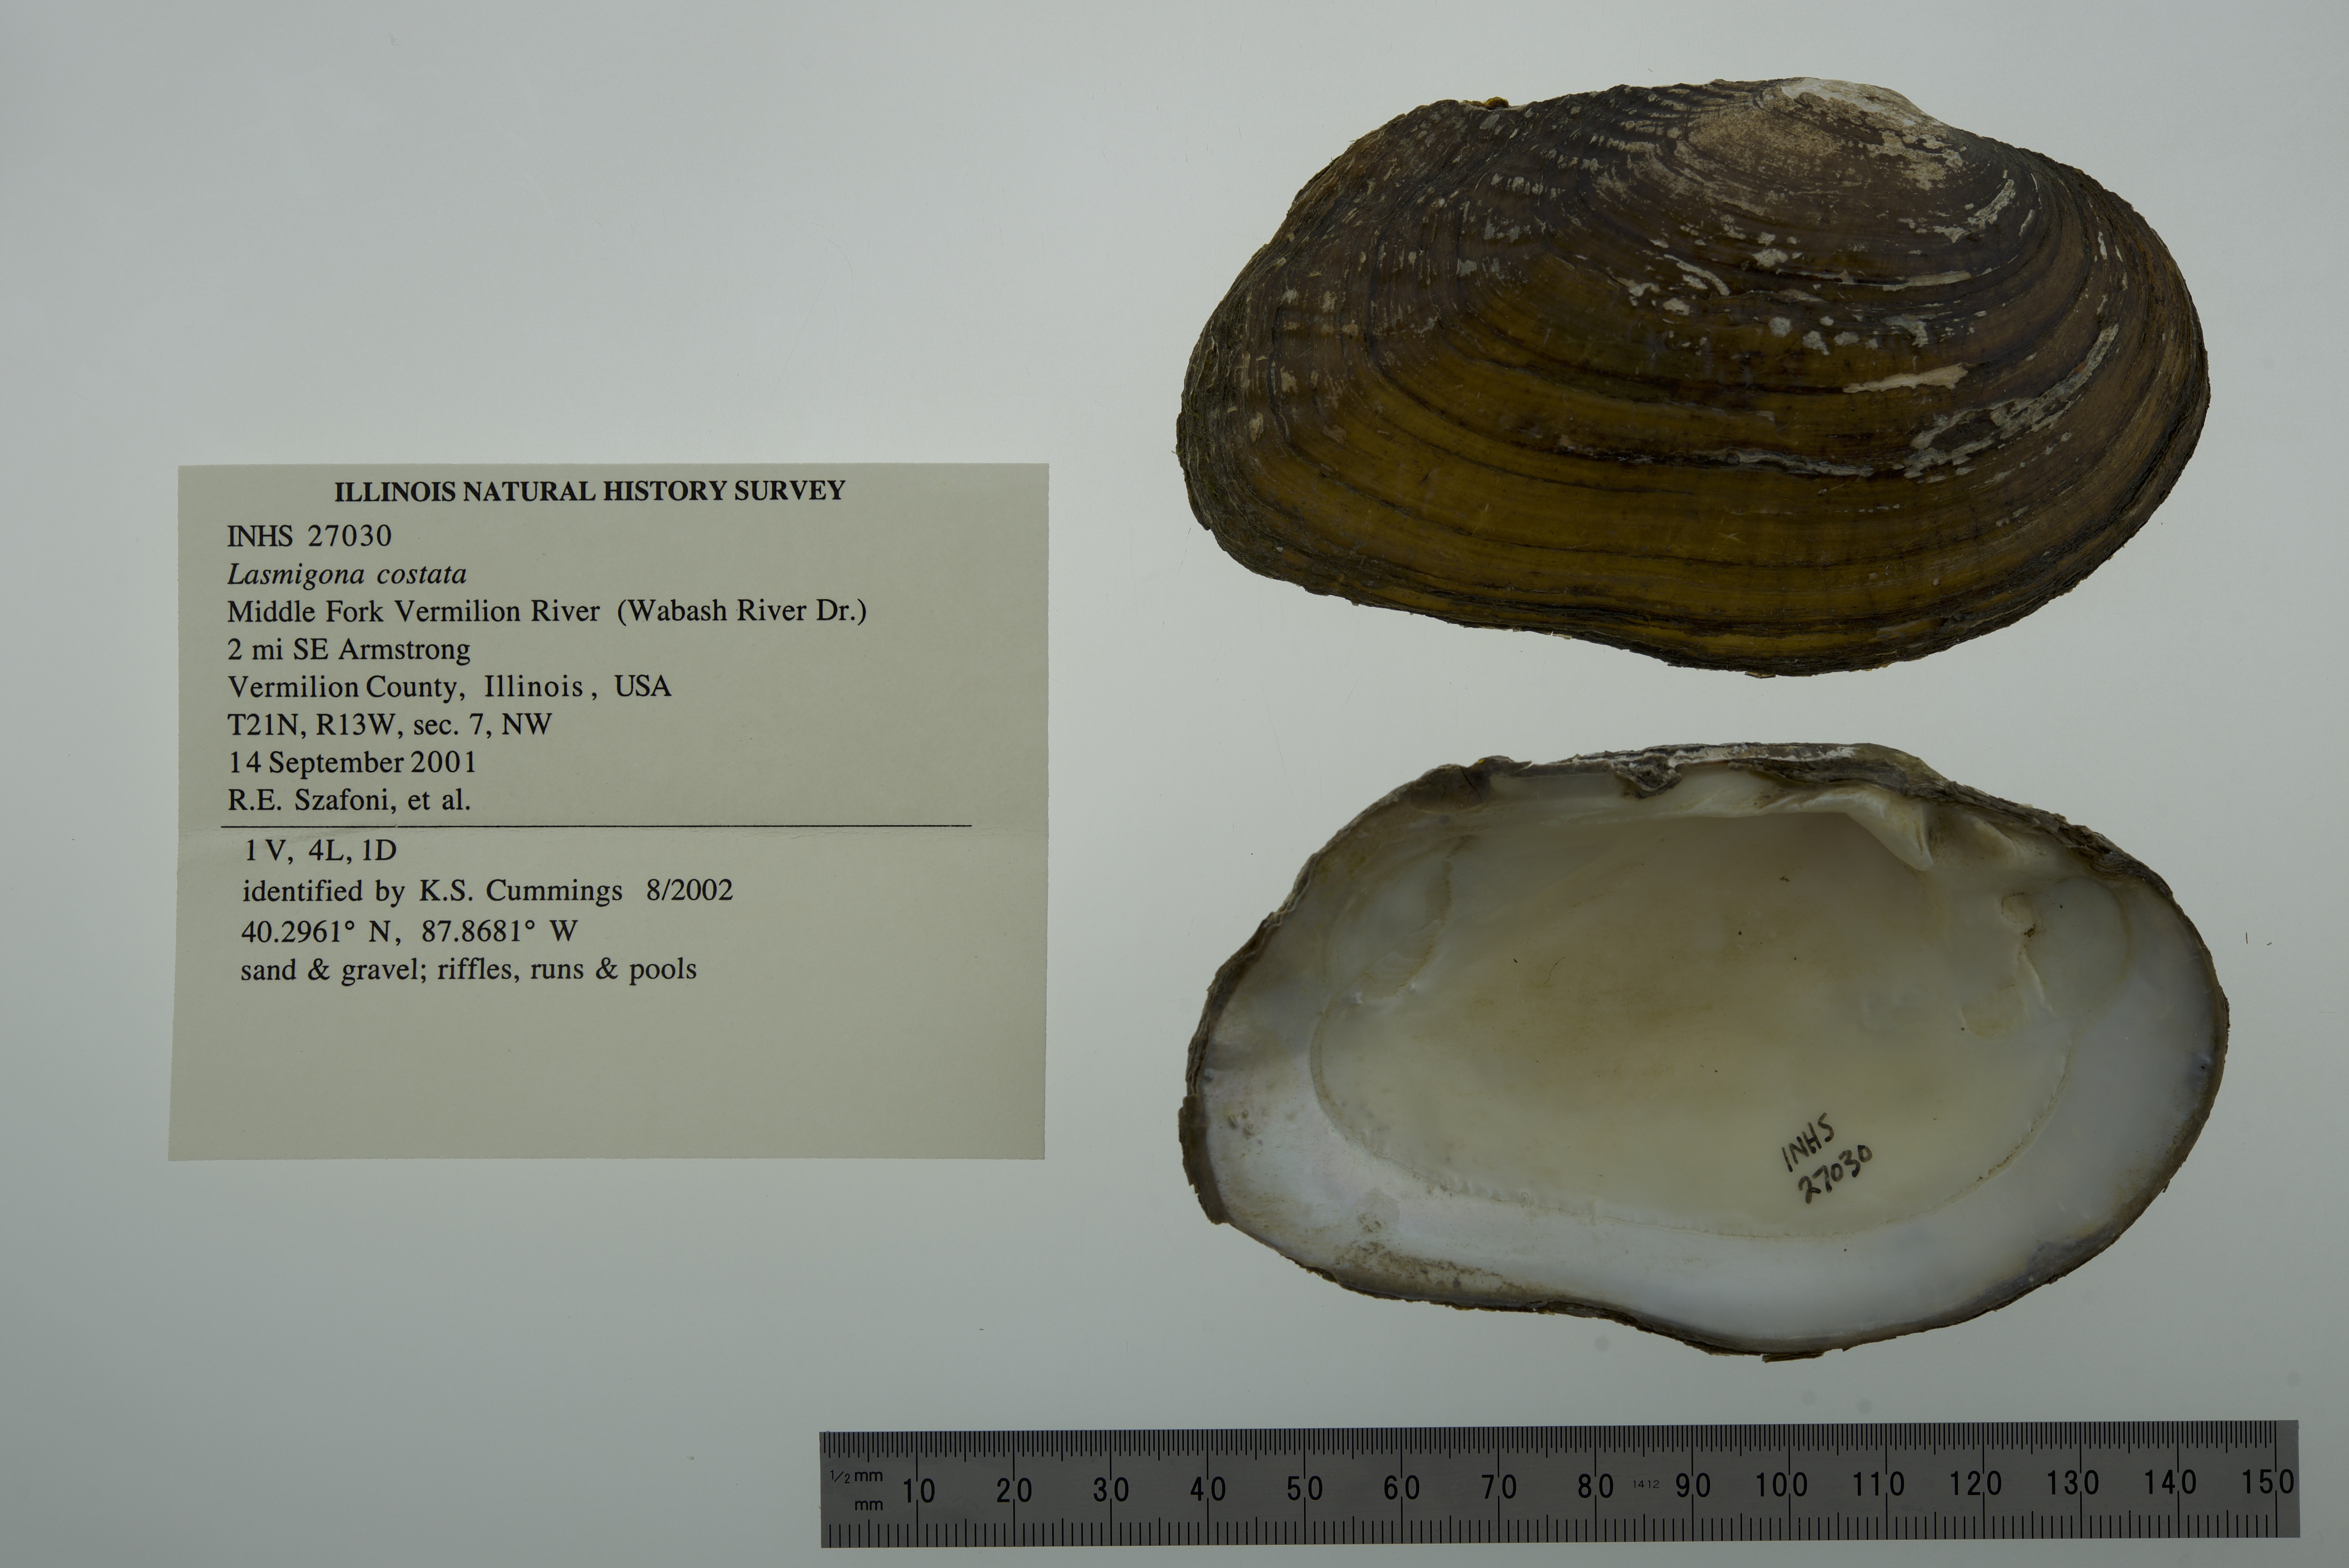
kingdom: Animalia
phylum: Mollusca
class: Bivalvia
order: Unionida
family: Unionidae
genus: Lasmigona
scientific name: Lasmigona costata
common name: Flutedshell
